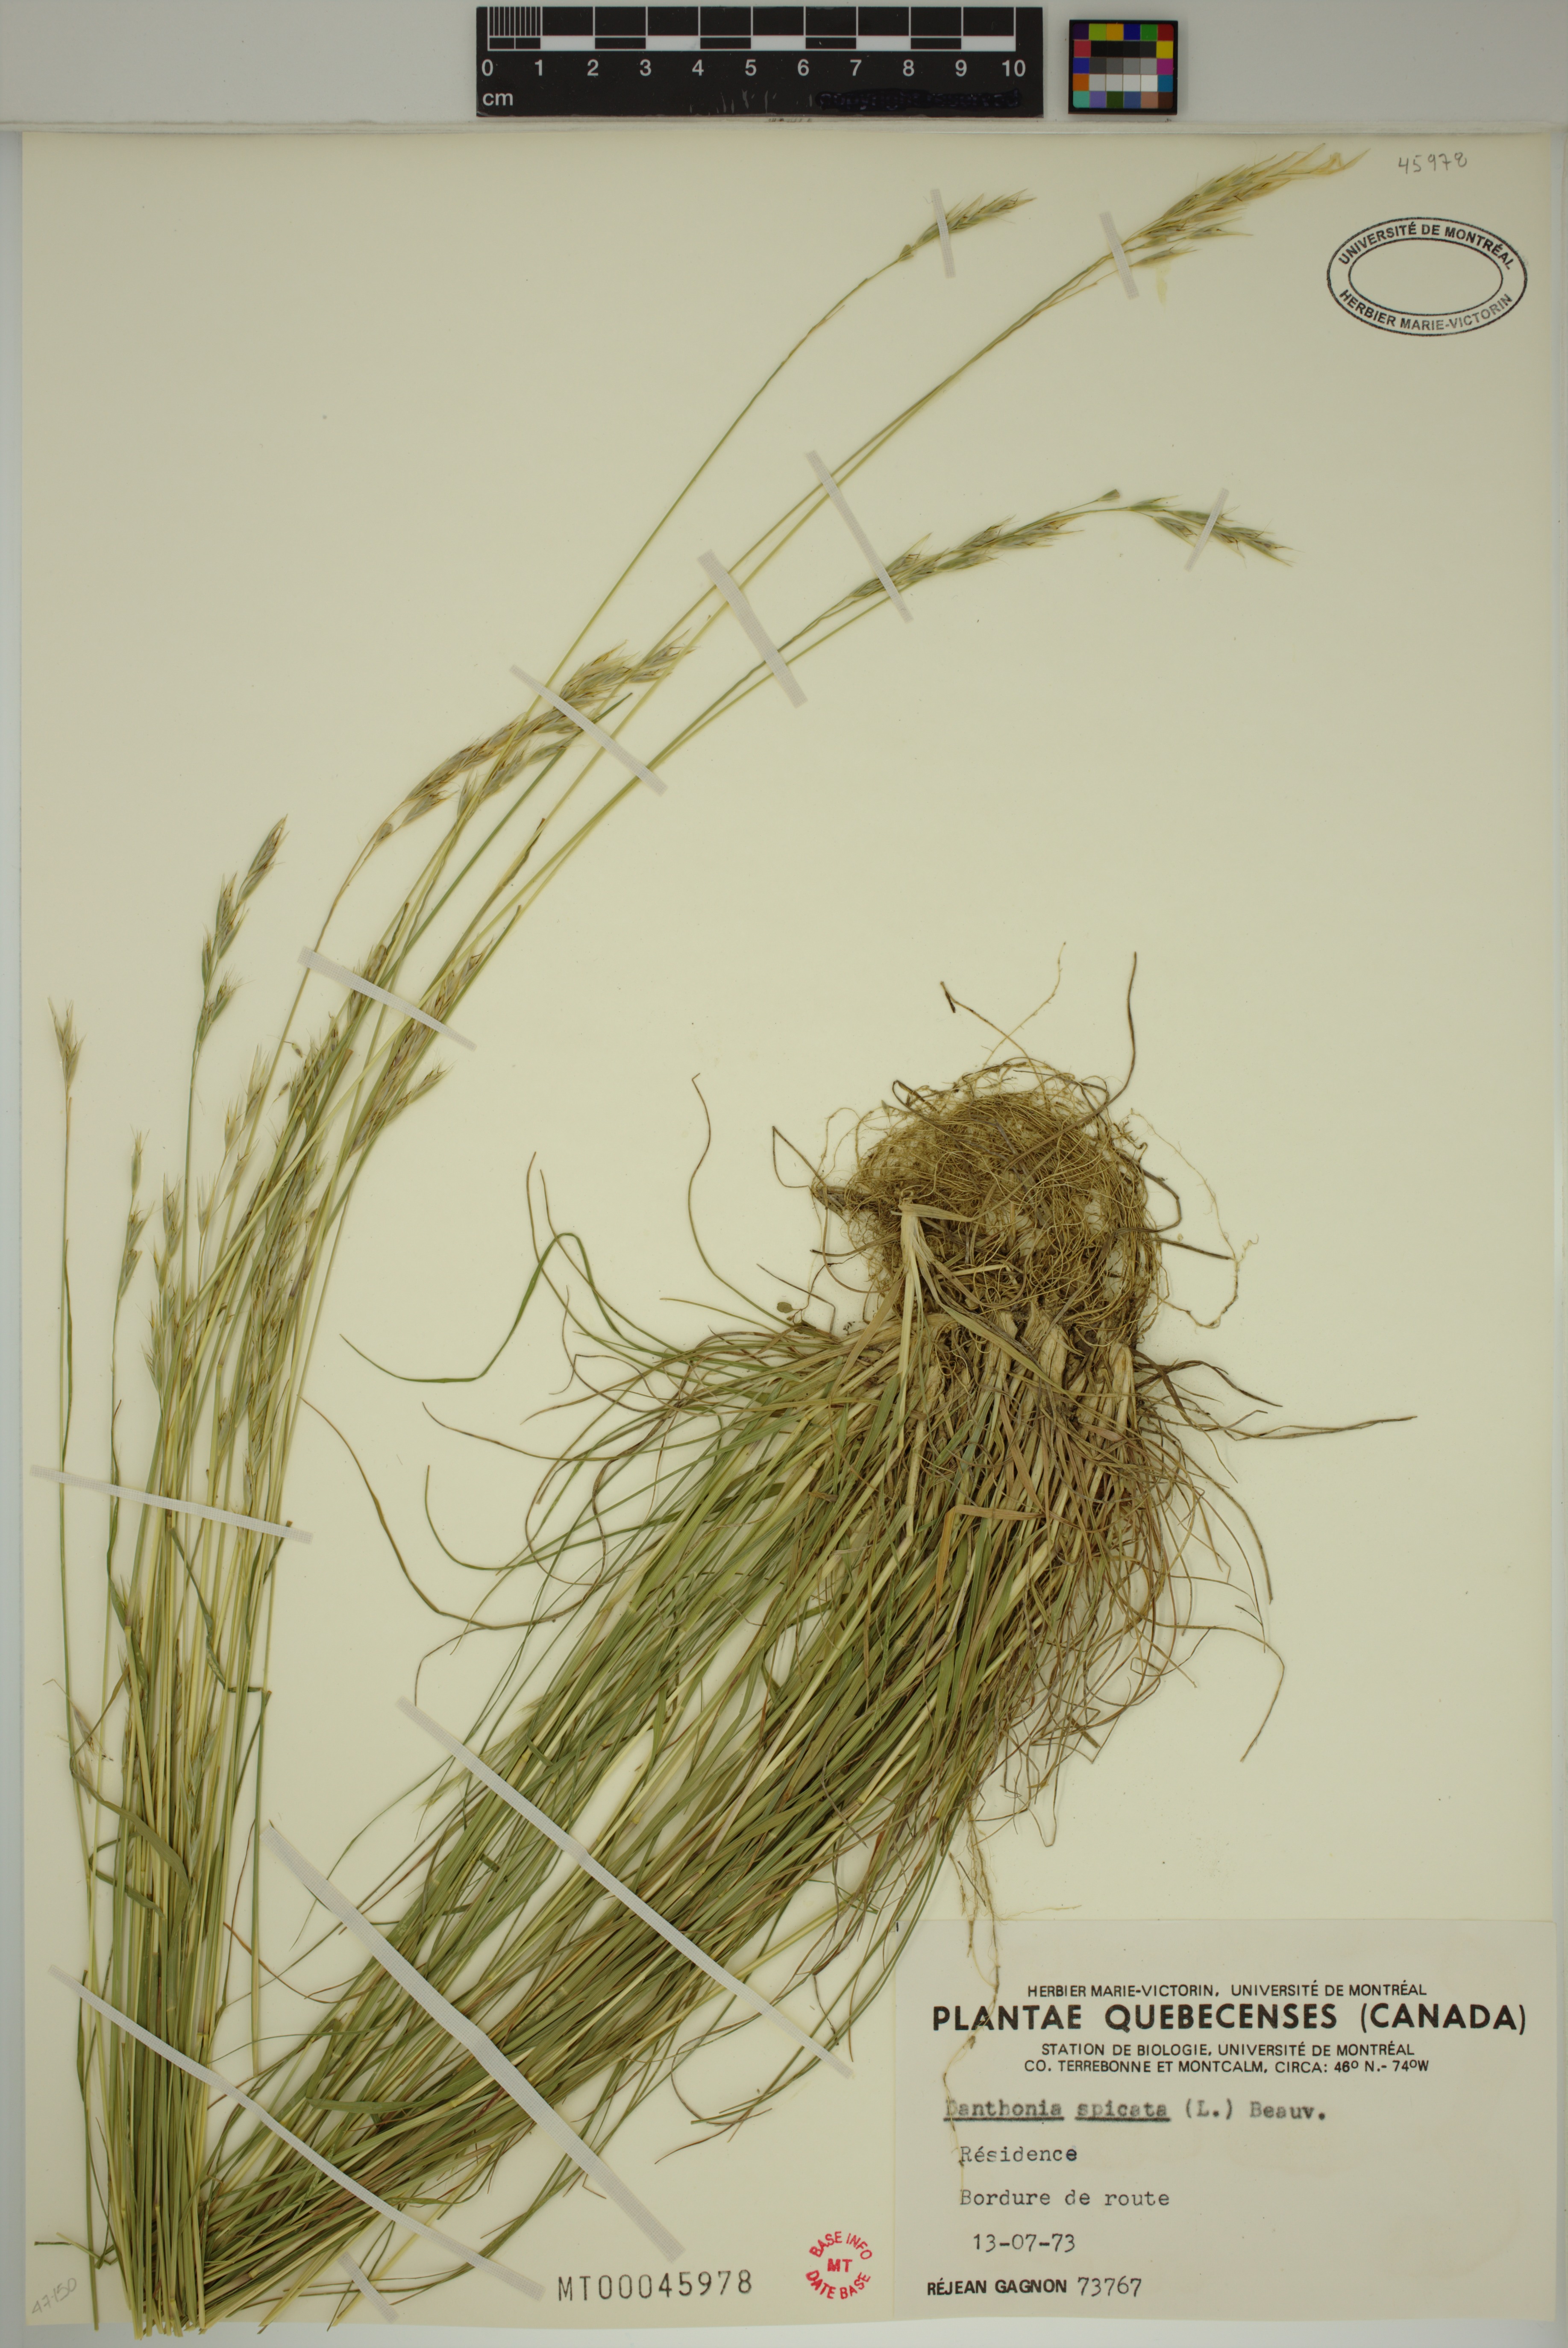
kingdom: Plantae
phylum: Tracheophyta
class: Liliopsida
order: Poales
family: Poaceae
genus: Danthonia
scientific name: Danthonia spicata
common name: Common wild oatgrass
